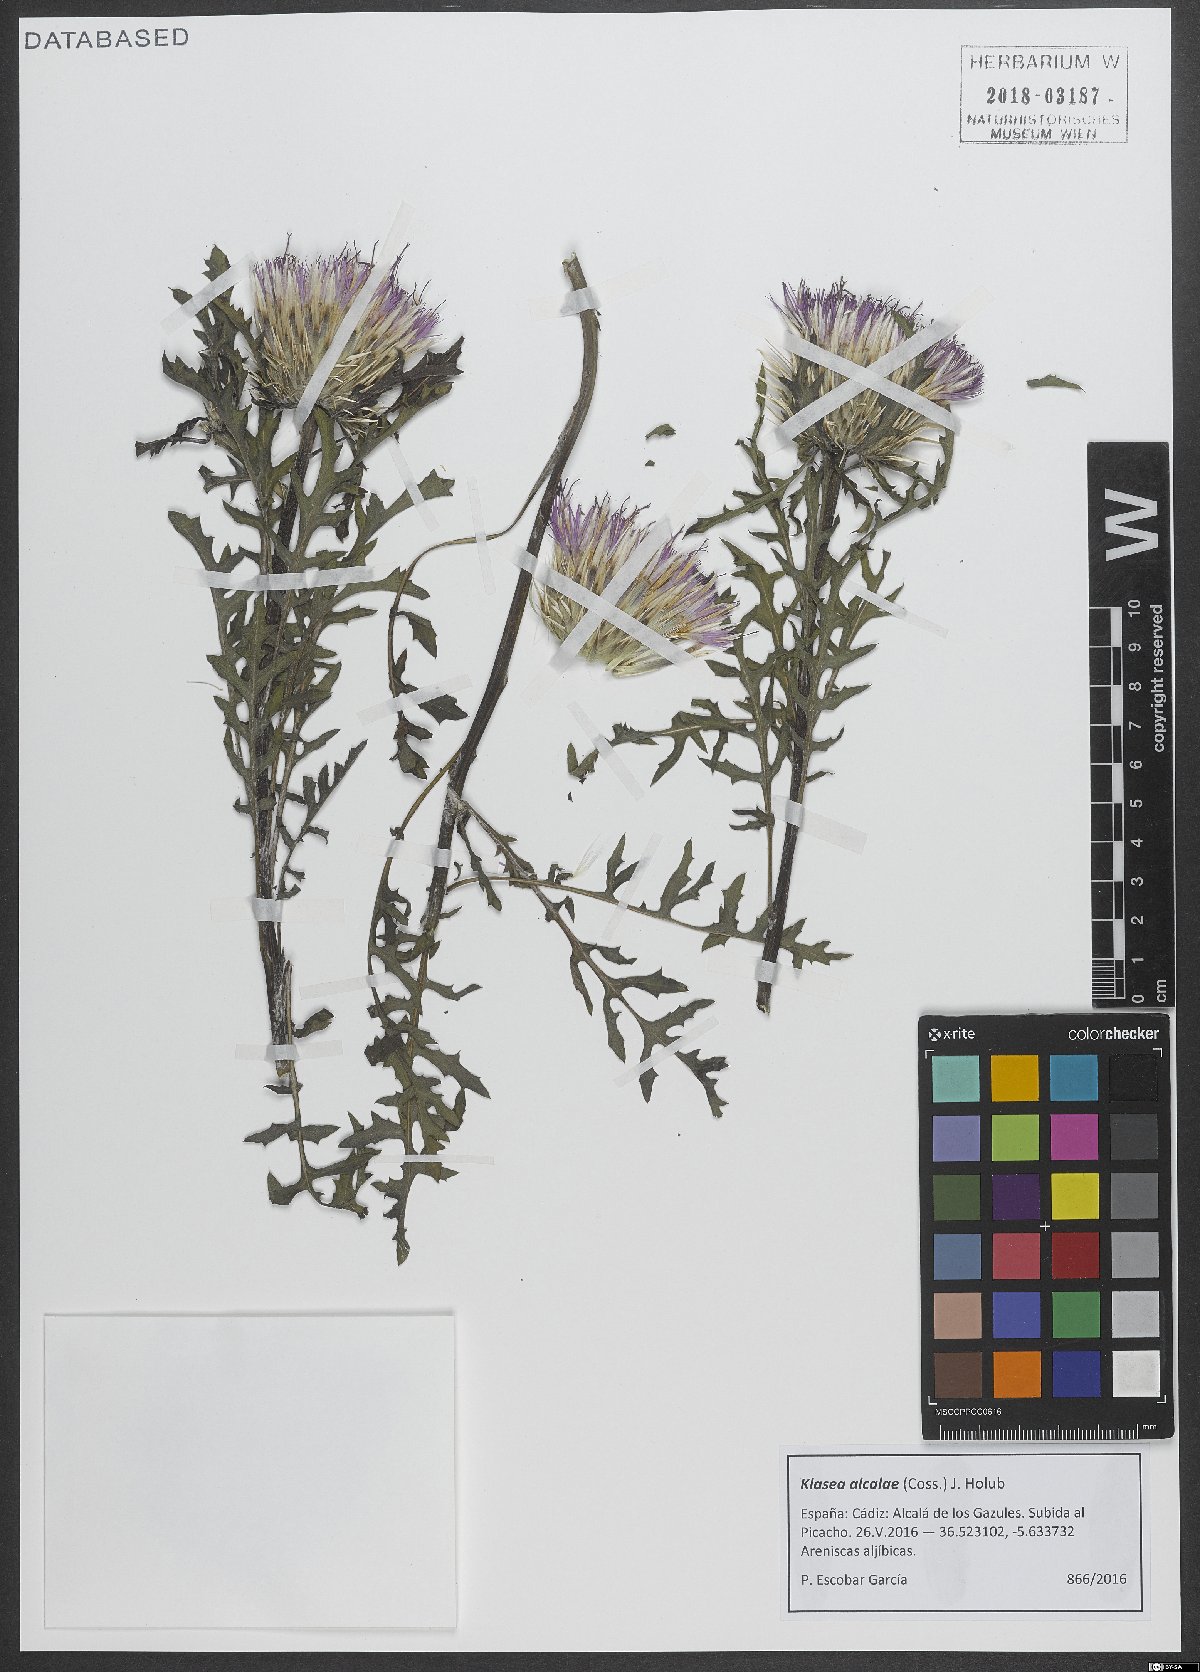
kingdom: Plantae
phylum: Tracheophyta
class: Magnoliopsida
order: Asterales
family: Asteraceae
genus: Klasea
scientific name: Klasea boetica
